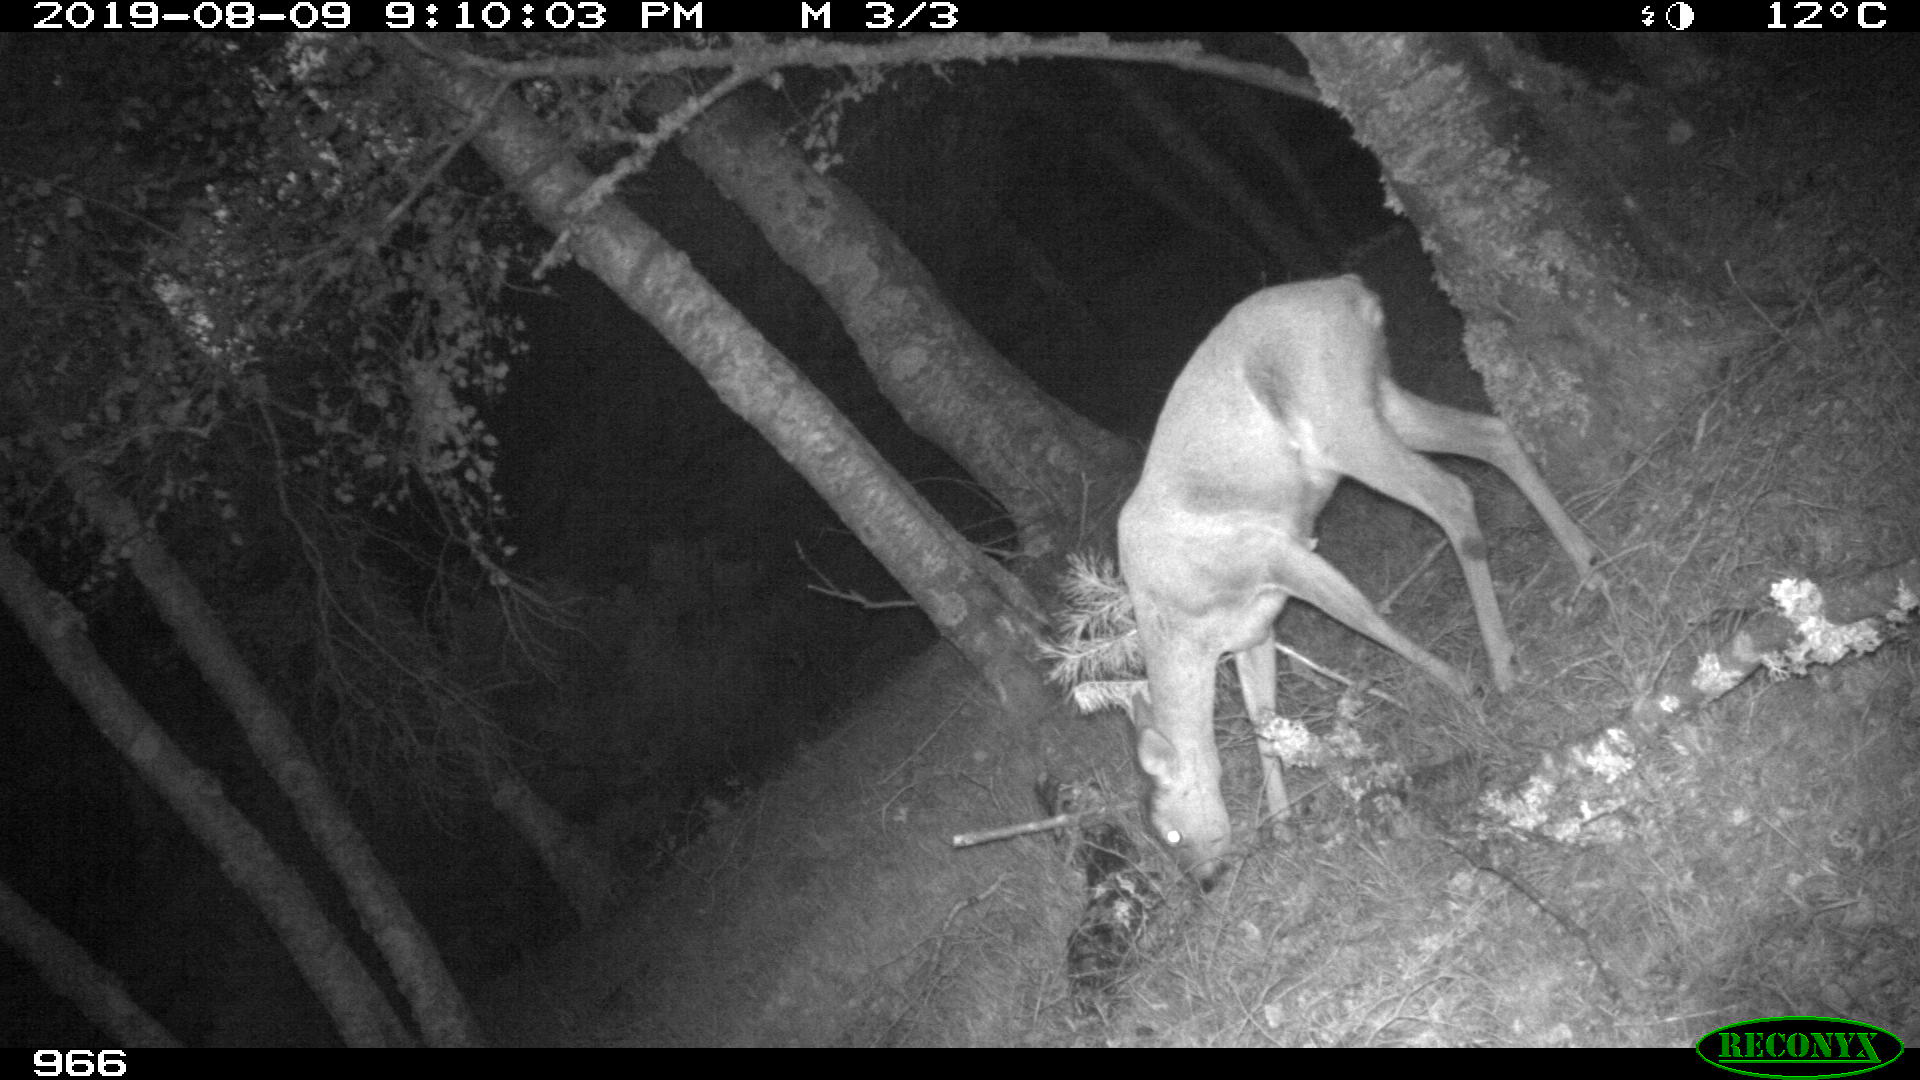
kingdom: Animalia
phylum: Chordata
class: Mammalia
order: Artiodactyla
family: Cervidae
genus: Capreolus
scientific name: Capreolus capreolus
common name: Western roe deer
